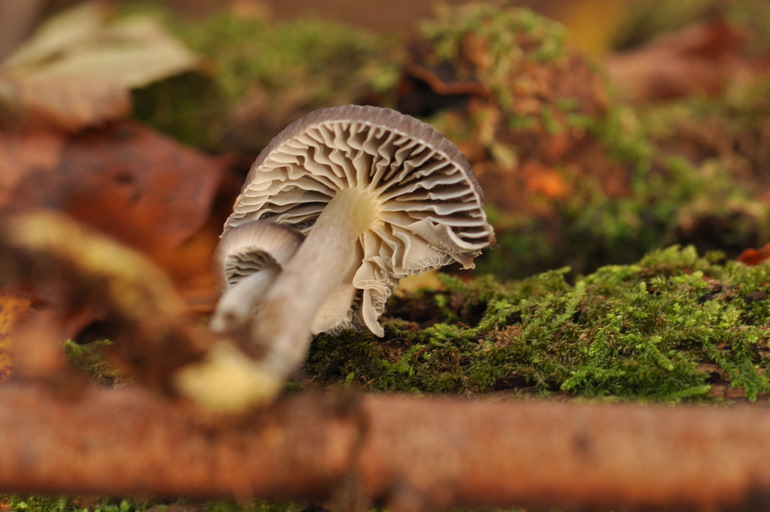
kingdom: Fungi
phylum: Basidiomycota
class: Agaricomycetes
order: Agaricales
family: Mycenaceae
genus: Mycena
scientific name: Mycena inclinata
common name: nikkende huesvamp
